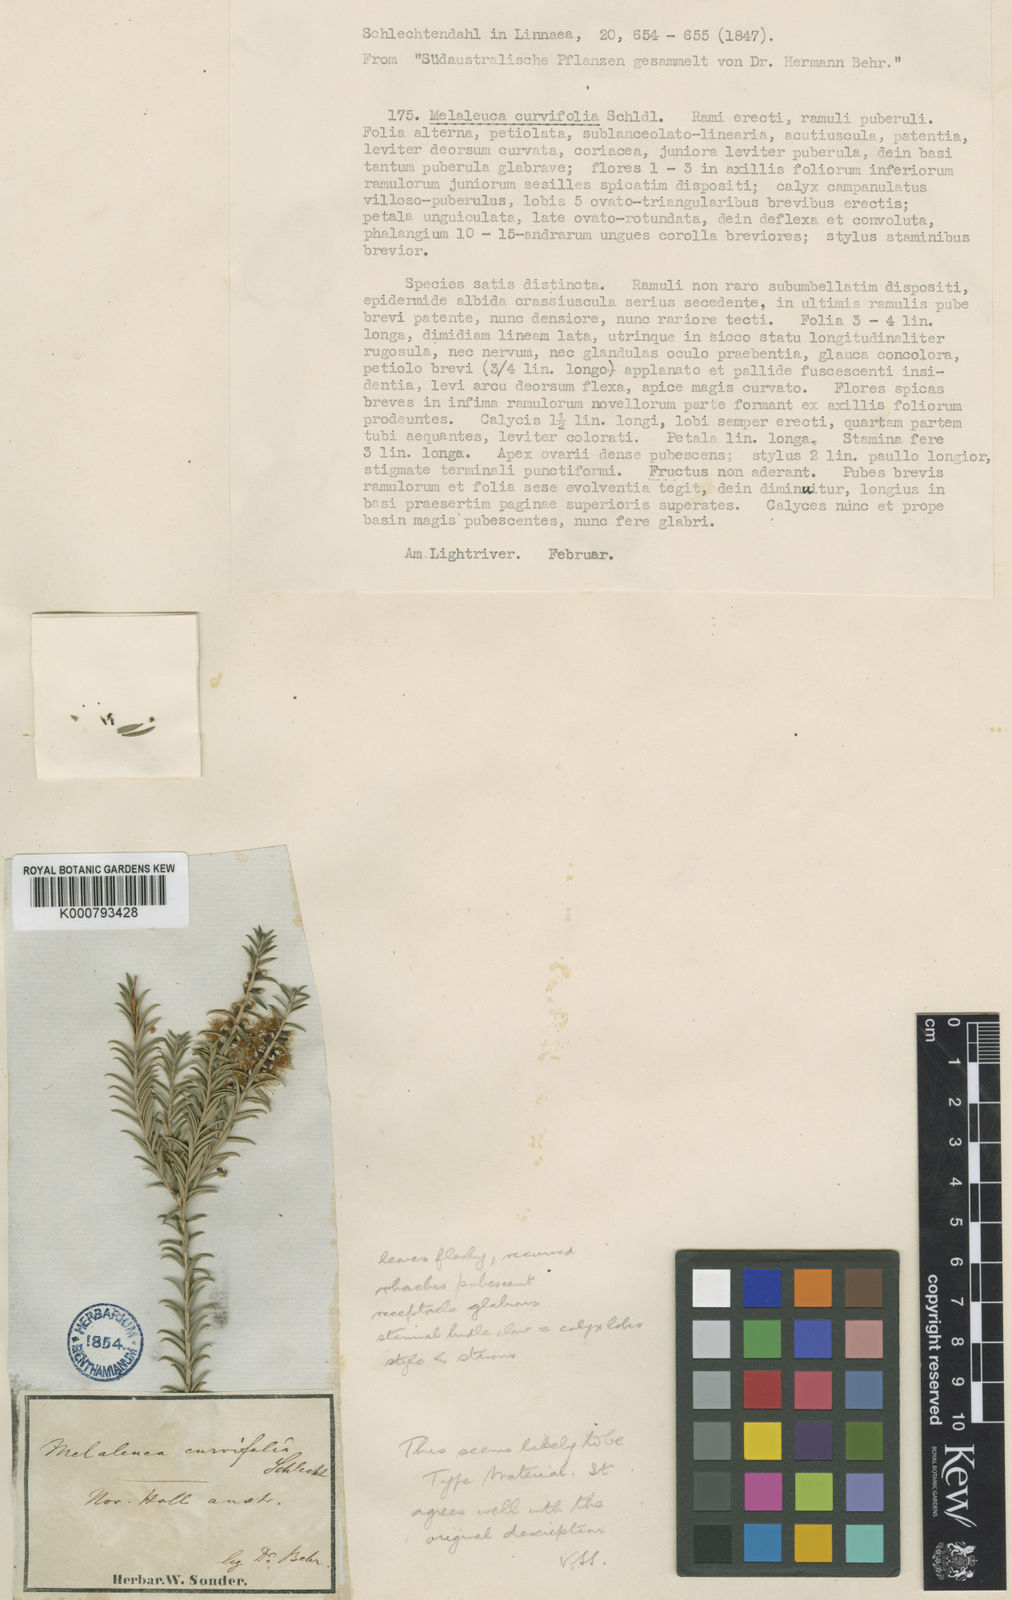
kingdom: Plantae
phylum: Tracheophyta
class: Magnoliopsida
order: Myrtales
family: Myrtaceae
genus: Melaleuca
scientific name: Melaleuca lanceolata
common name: Rottnest island teatree
